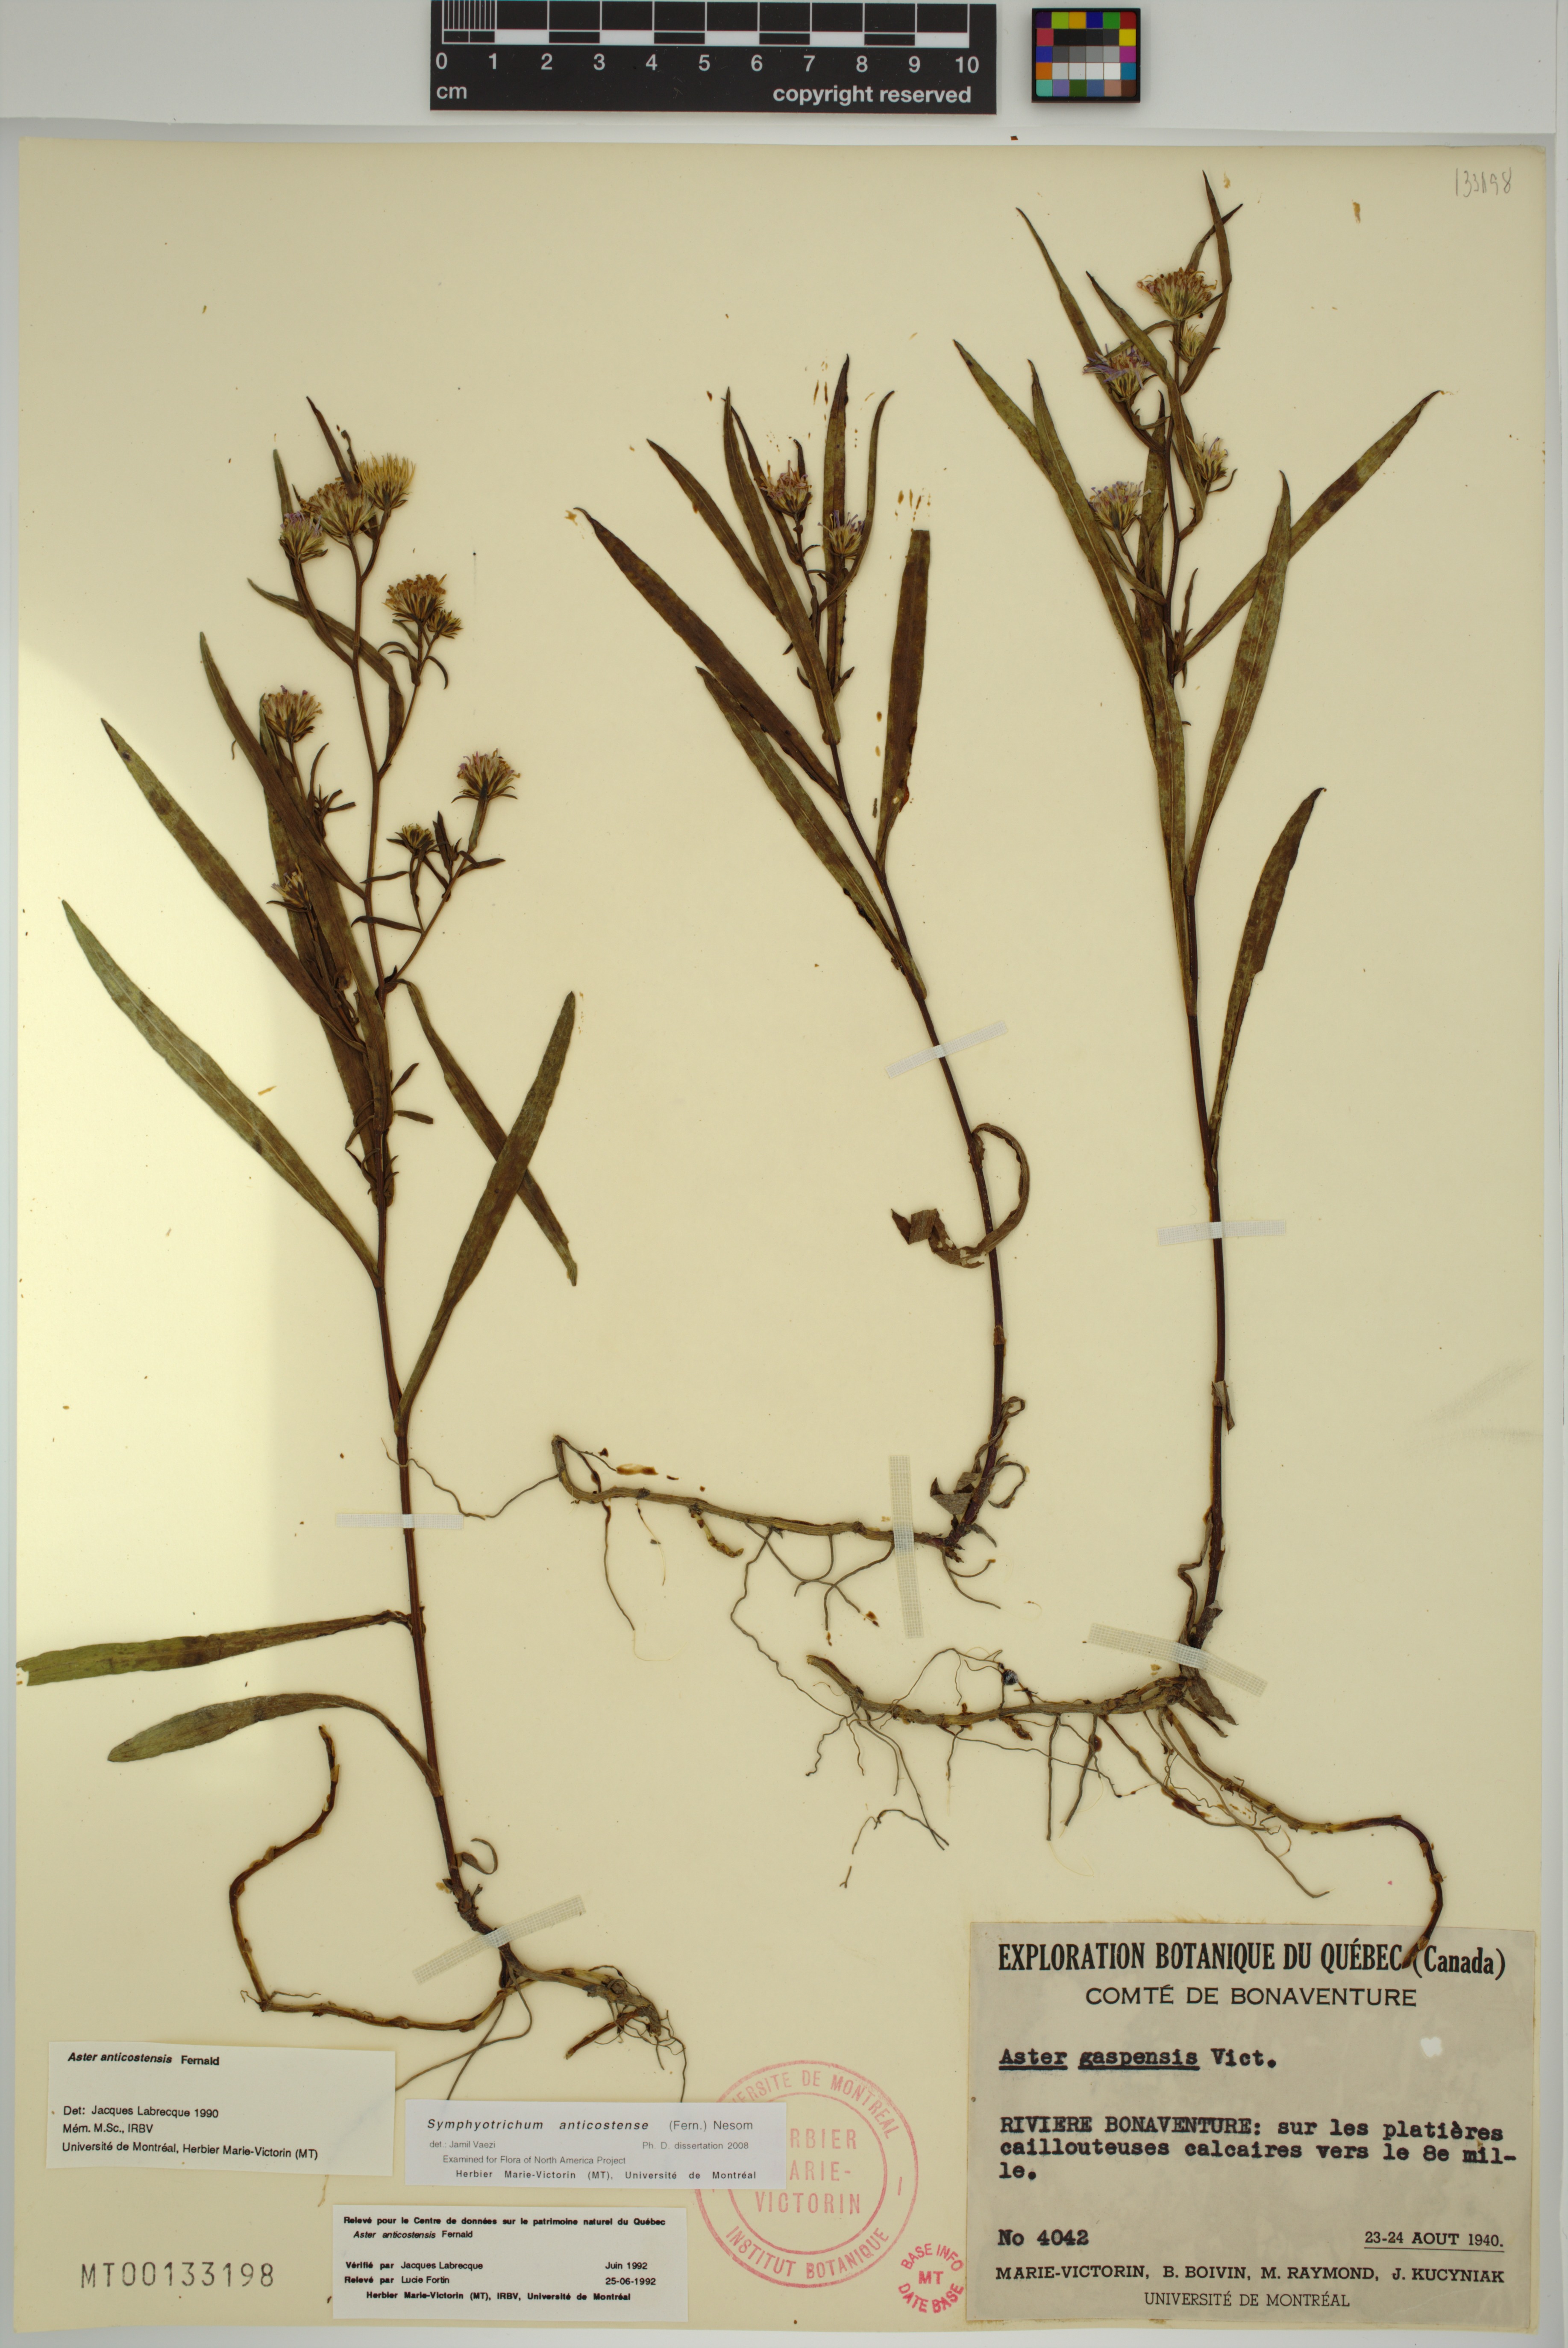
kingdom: Plantae
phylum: Tracheophyta
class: Magnoliopsida
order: Asterales
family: Asteraceae
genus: Symphyotrichum
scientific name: Symphyotrichum anticostense
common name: Anticosti island aster
